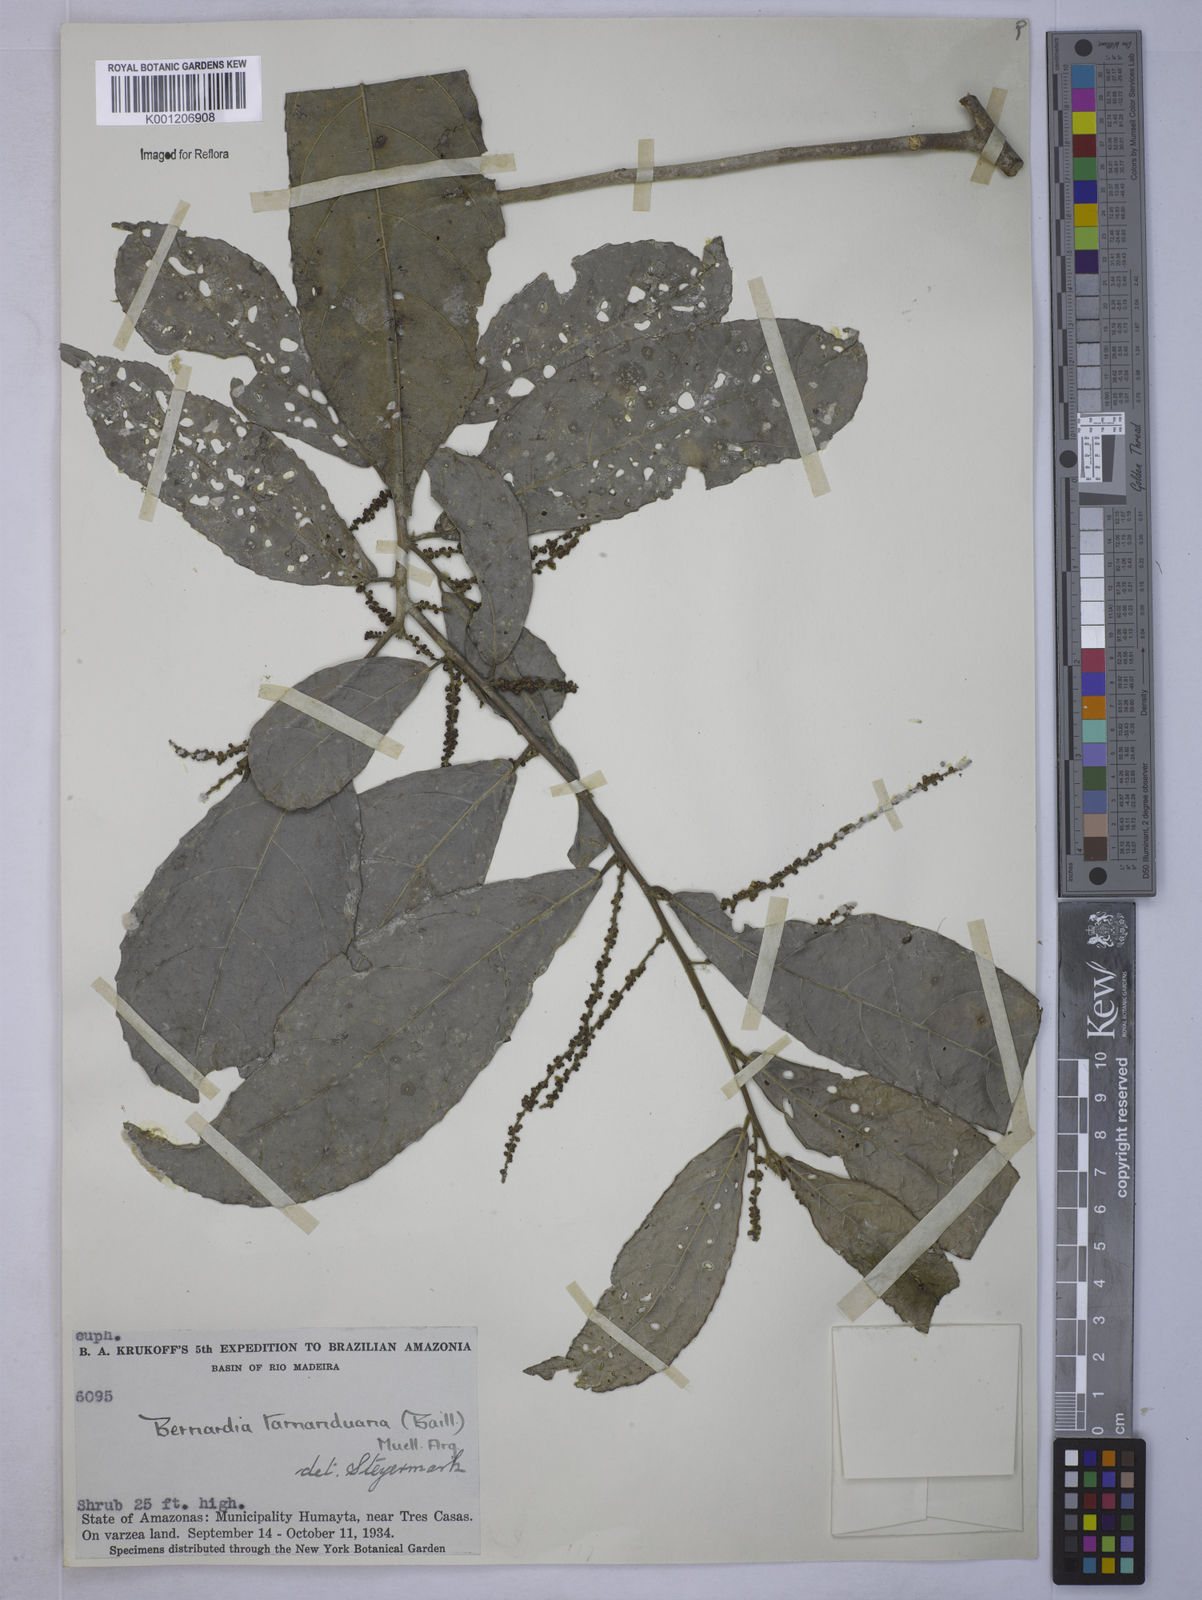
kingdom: Plantae
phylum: Tracheophyta
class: Magnoliopsida
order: Malpighiales
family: Euphorbiaceae
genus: Cleidion
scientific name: Cleidion
